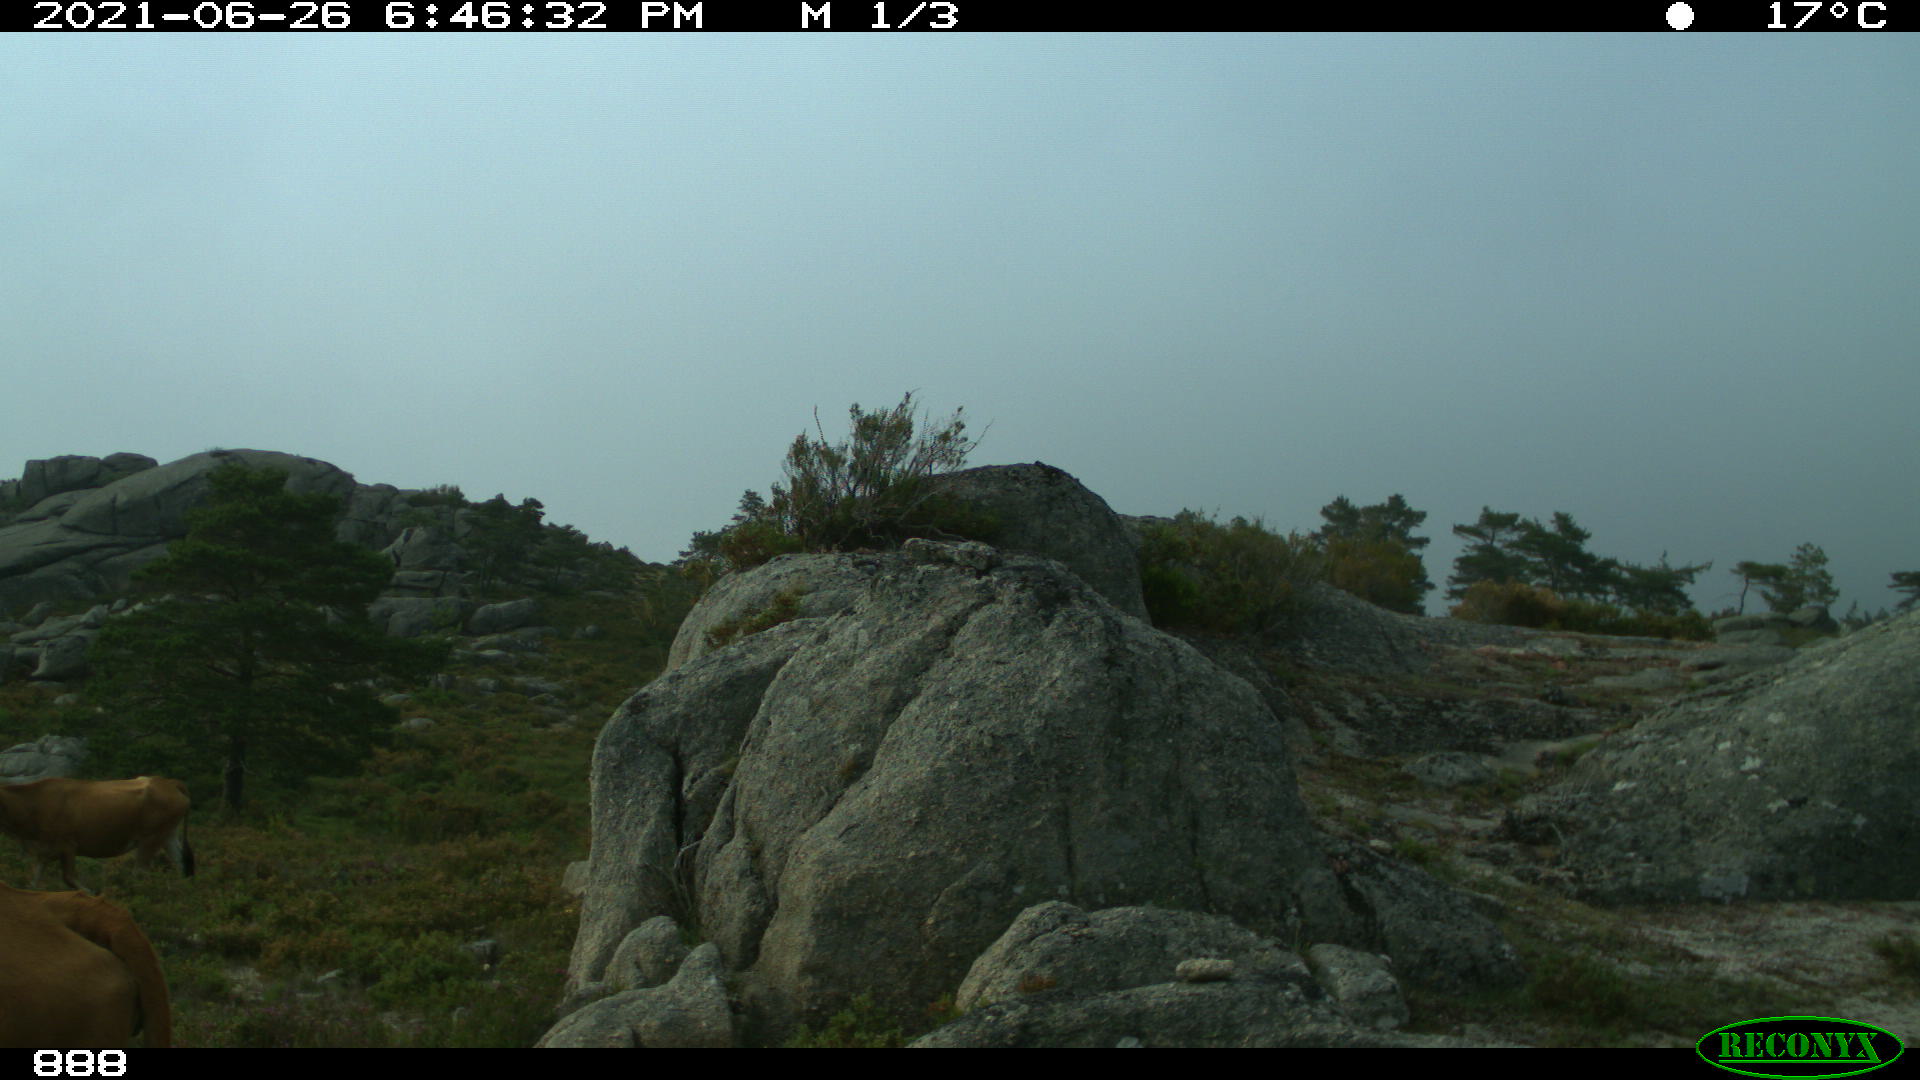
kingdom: Animalia
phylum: Chordata
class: Mammalia
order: Artiodactyla
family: Bovidae
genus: Bos
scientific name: Bos taurus
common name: Domesticated cattle
